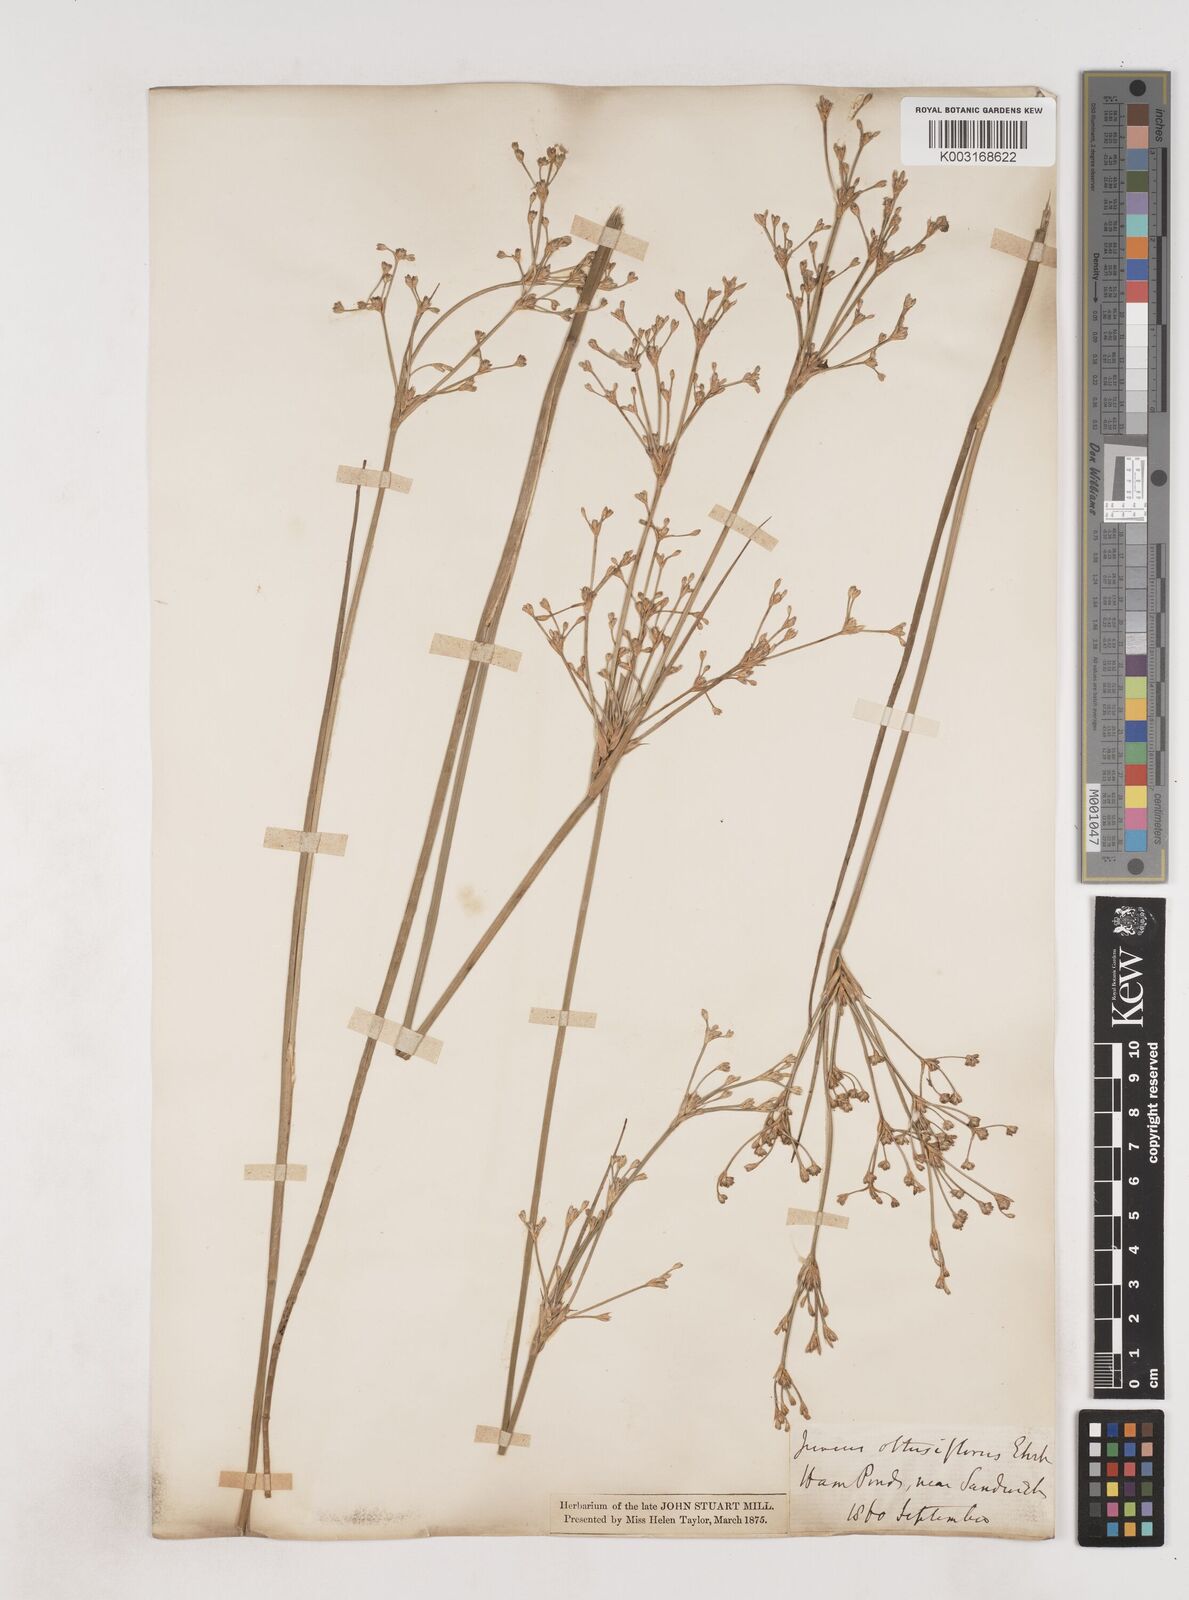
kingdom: Plantae
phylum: Tracheophyta
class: Liliopsida
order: Poales
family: Juncaceae
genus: Juncus
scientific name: Juncus subnodulosus
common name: Blunt-flowered rush
